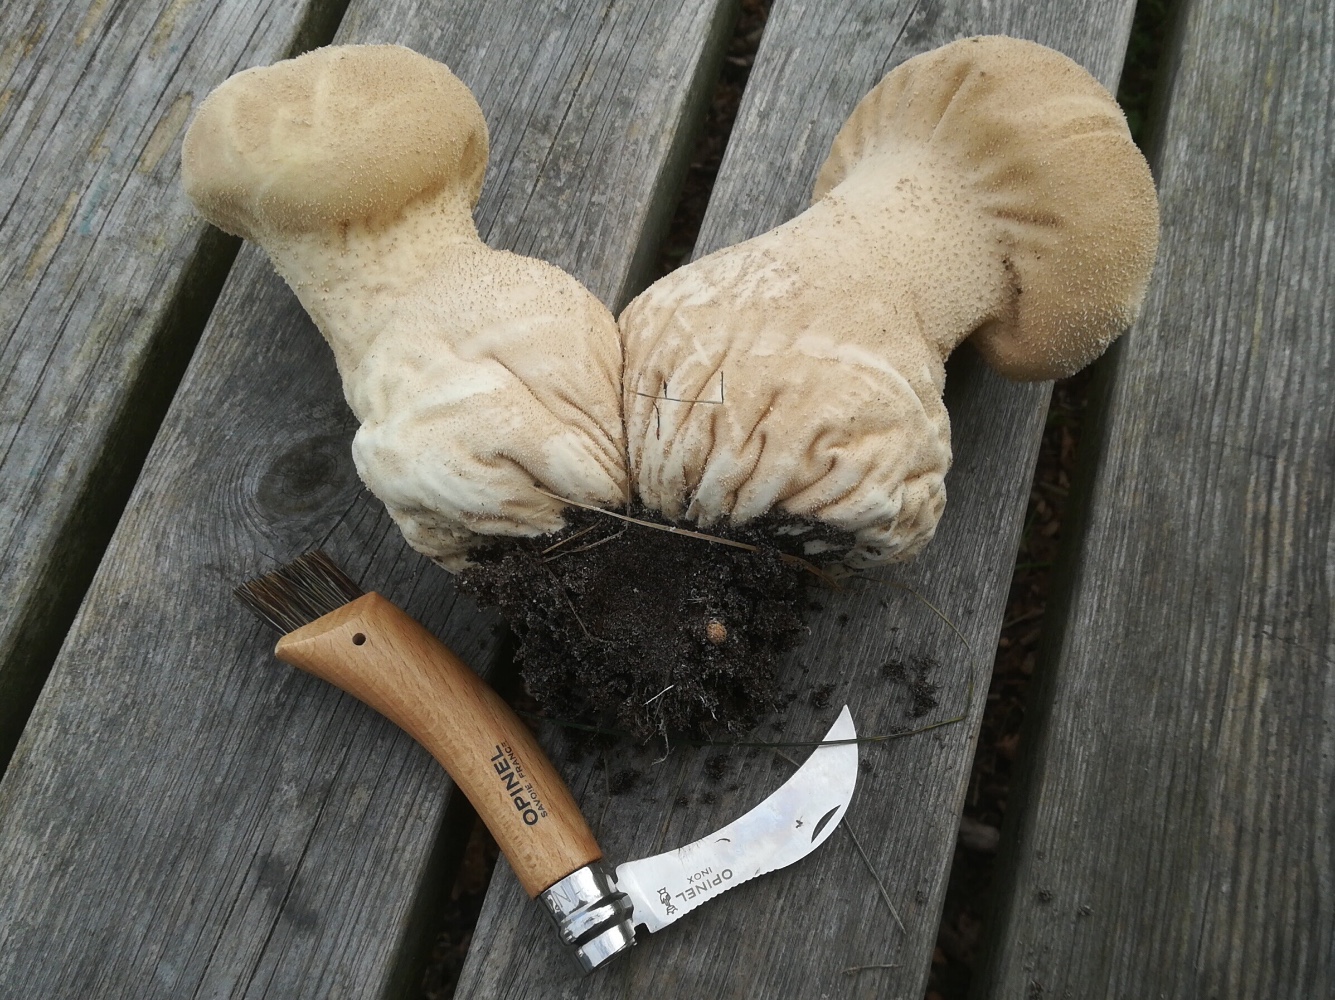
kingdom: Fungi
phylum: Basidiomycota
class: Agaricomycetes
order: Agaricales
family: Lycoperdaceae
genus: Lycoperdon
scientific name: Lycoperdon excipuliforme
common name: højstokket støvbold
